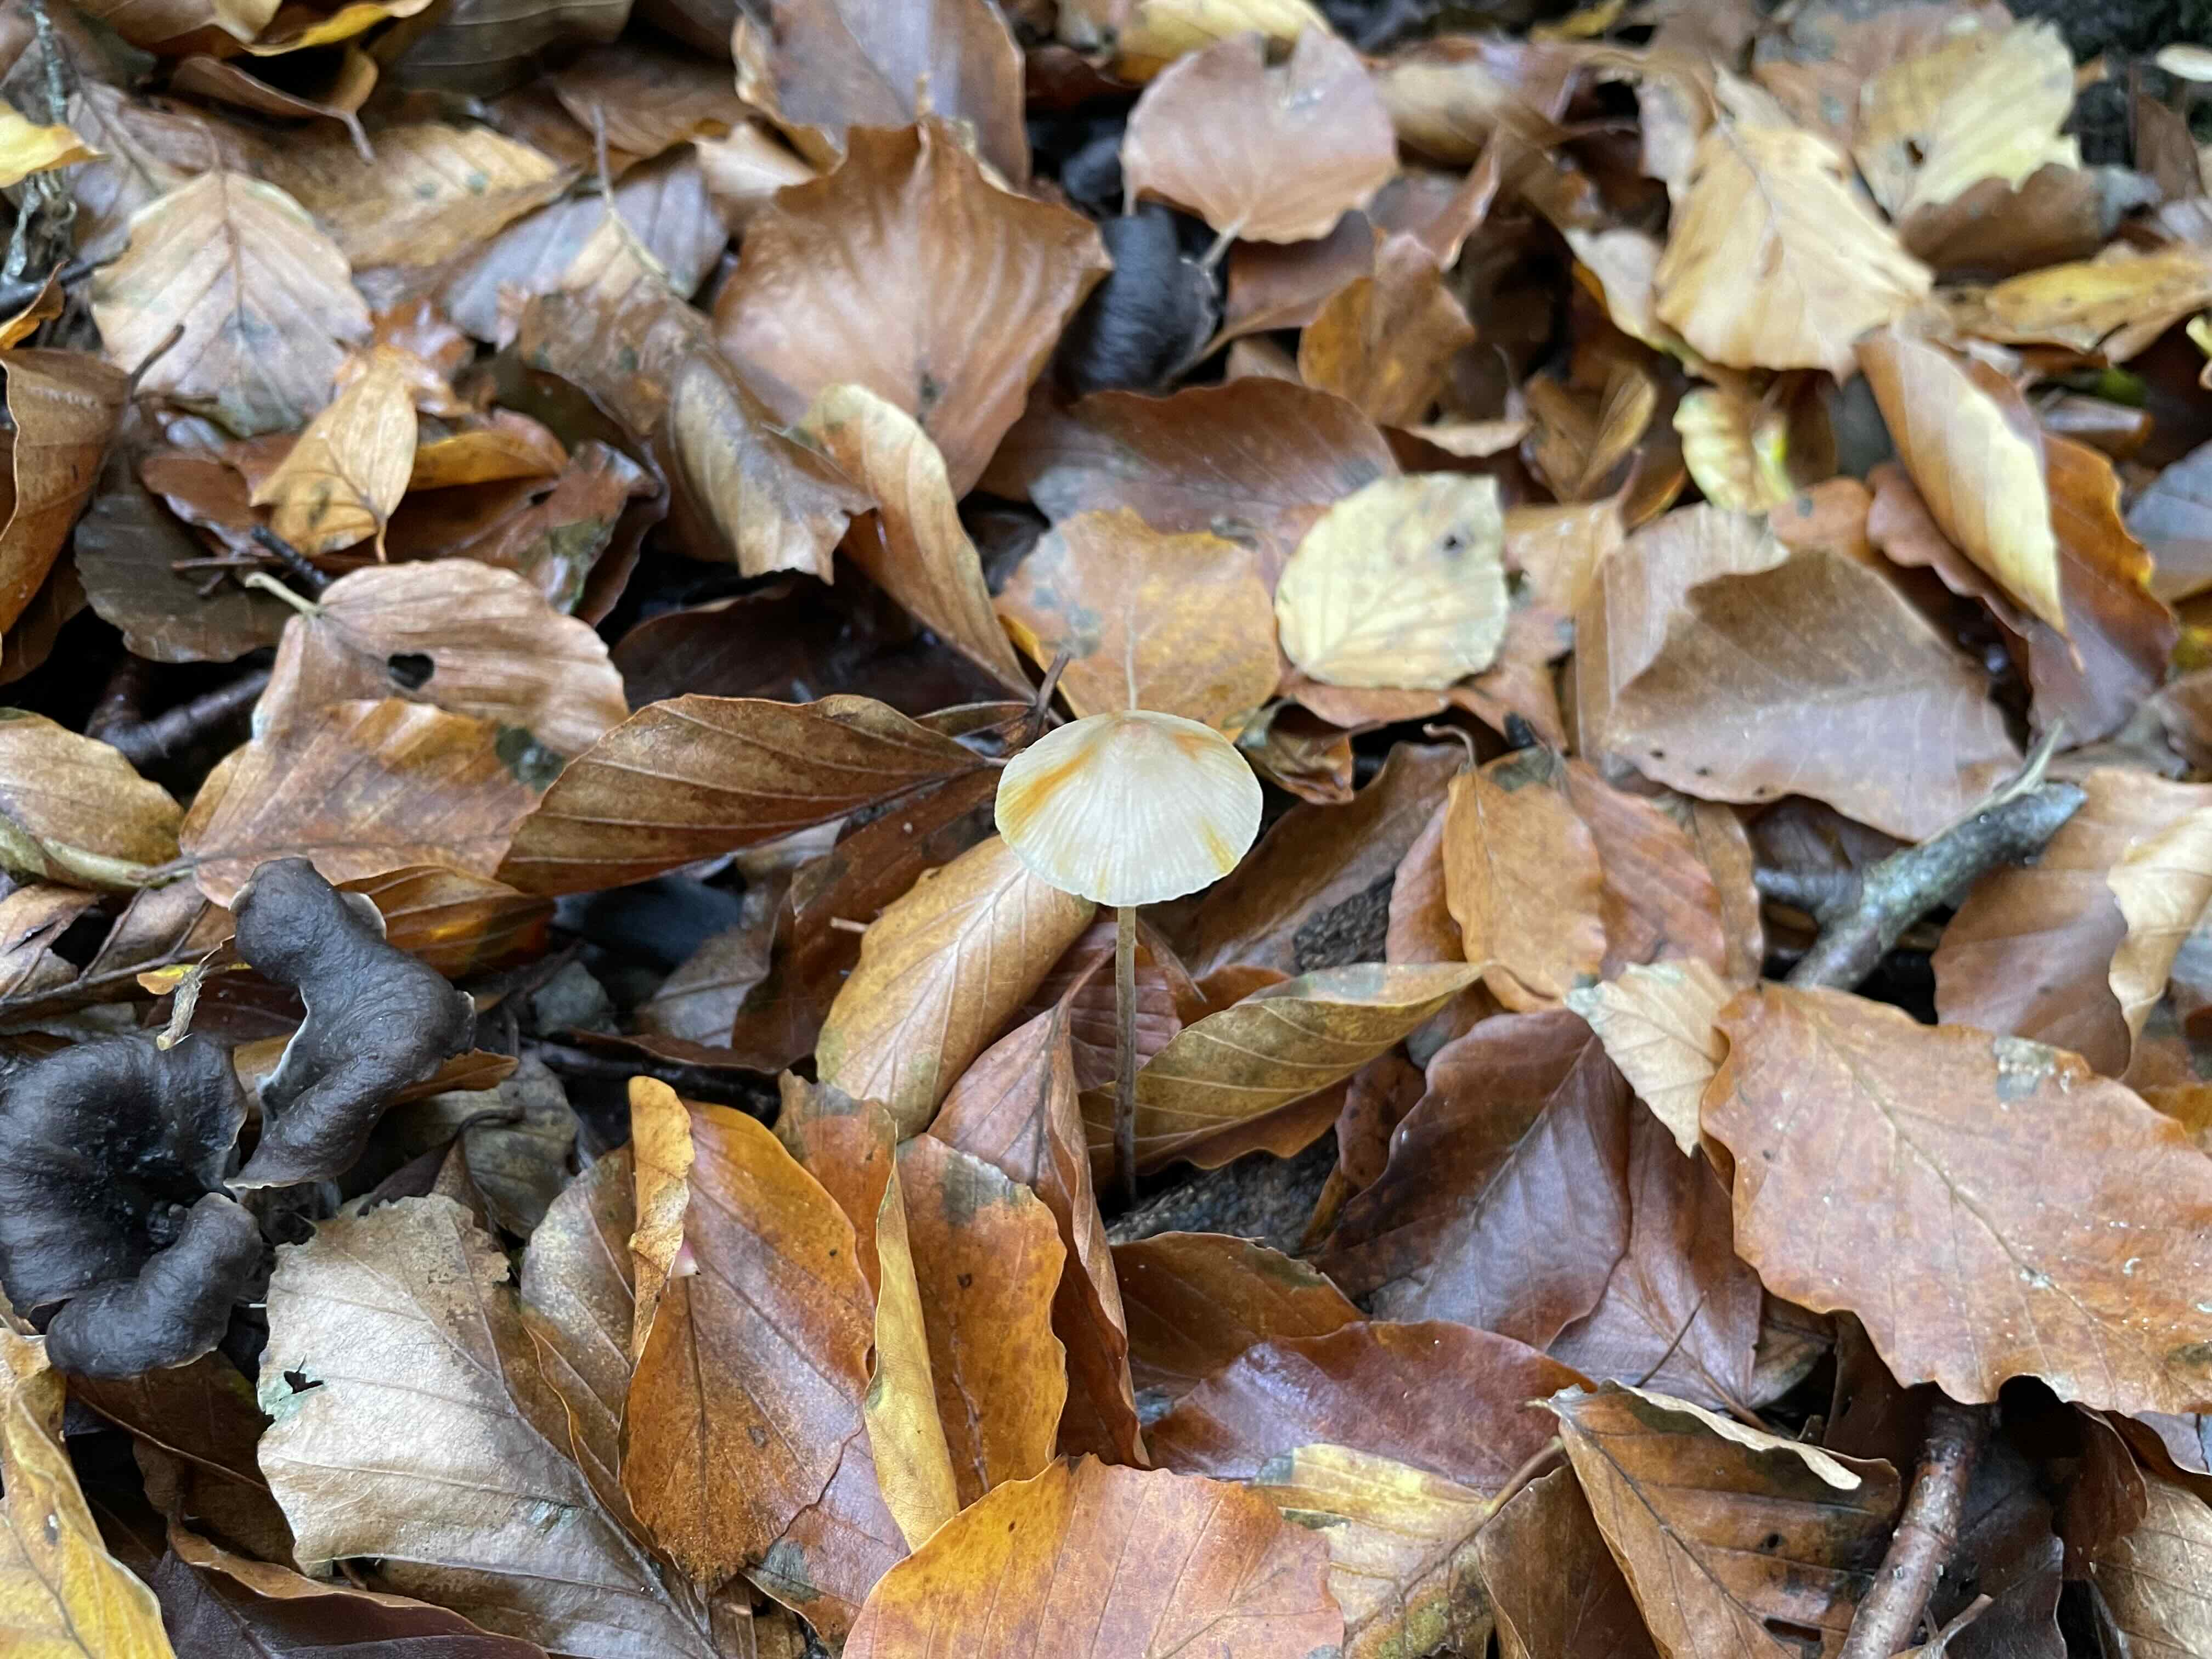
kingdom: Fungi
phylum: Basidiomycota
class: Agaricomycetes
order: Agaricales
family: Mycenaceae
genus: Mycena
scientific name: Mycena crocata
